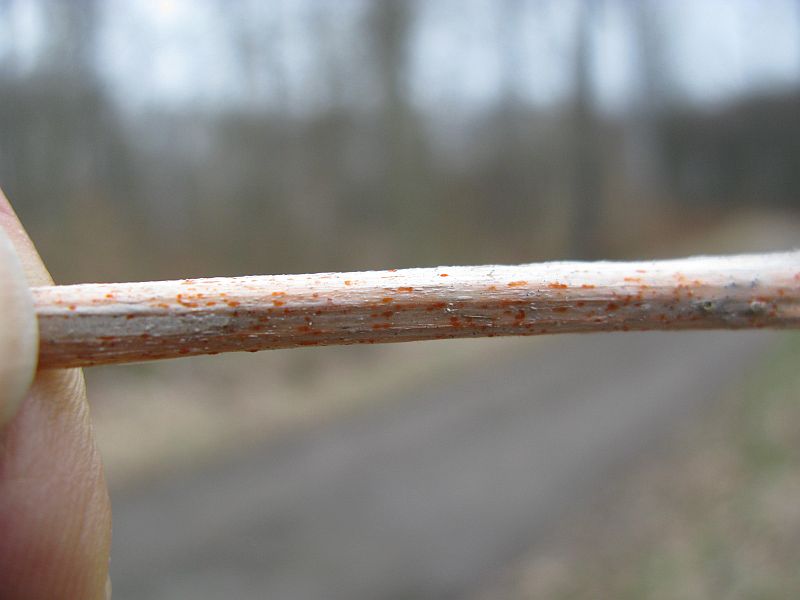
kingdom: Fungi
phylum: Ascomycota
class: Leotiomycetes
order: Helotiales
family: Calloriaceae
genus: Calloria
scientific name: Calloria urticae
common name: nælde-orangeskive
